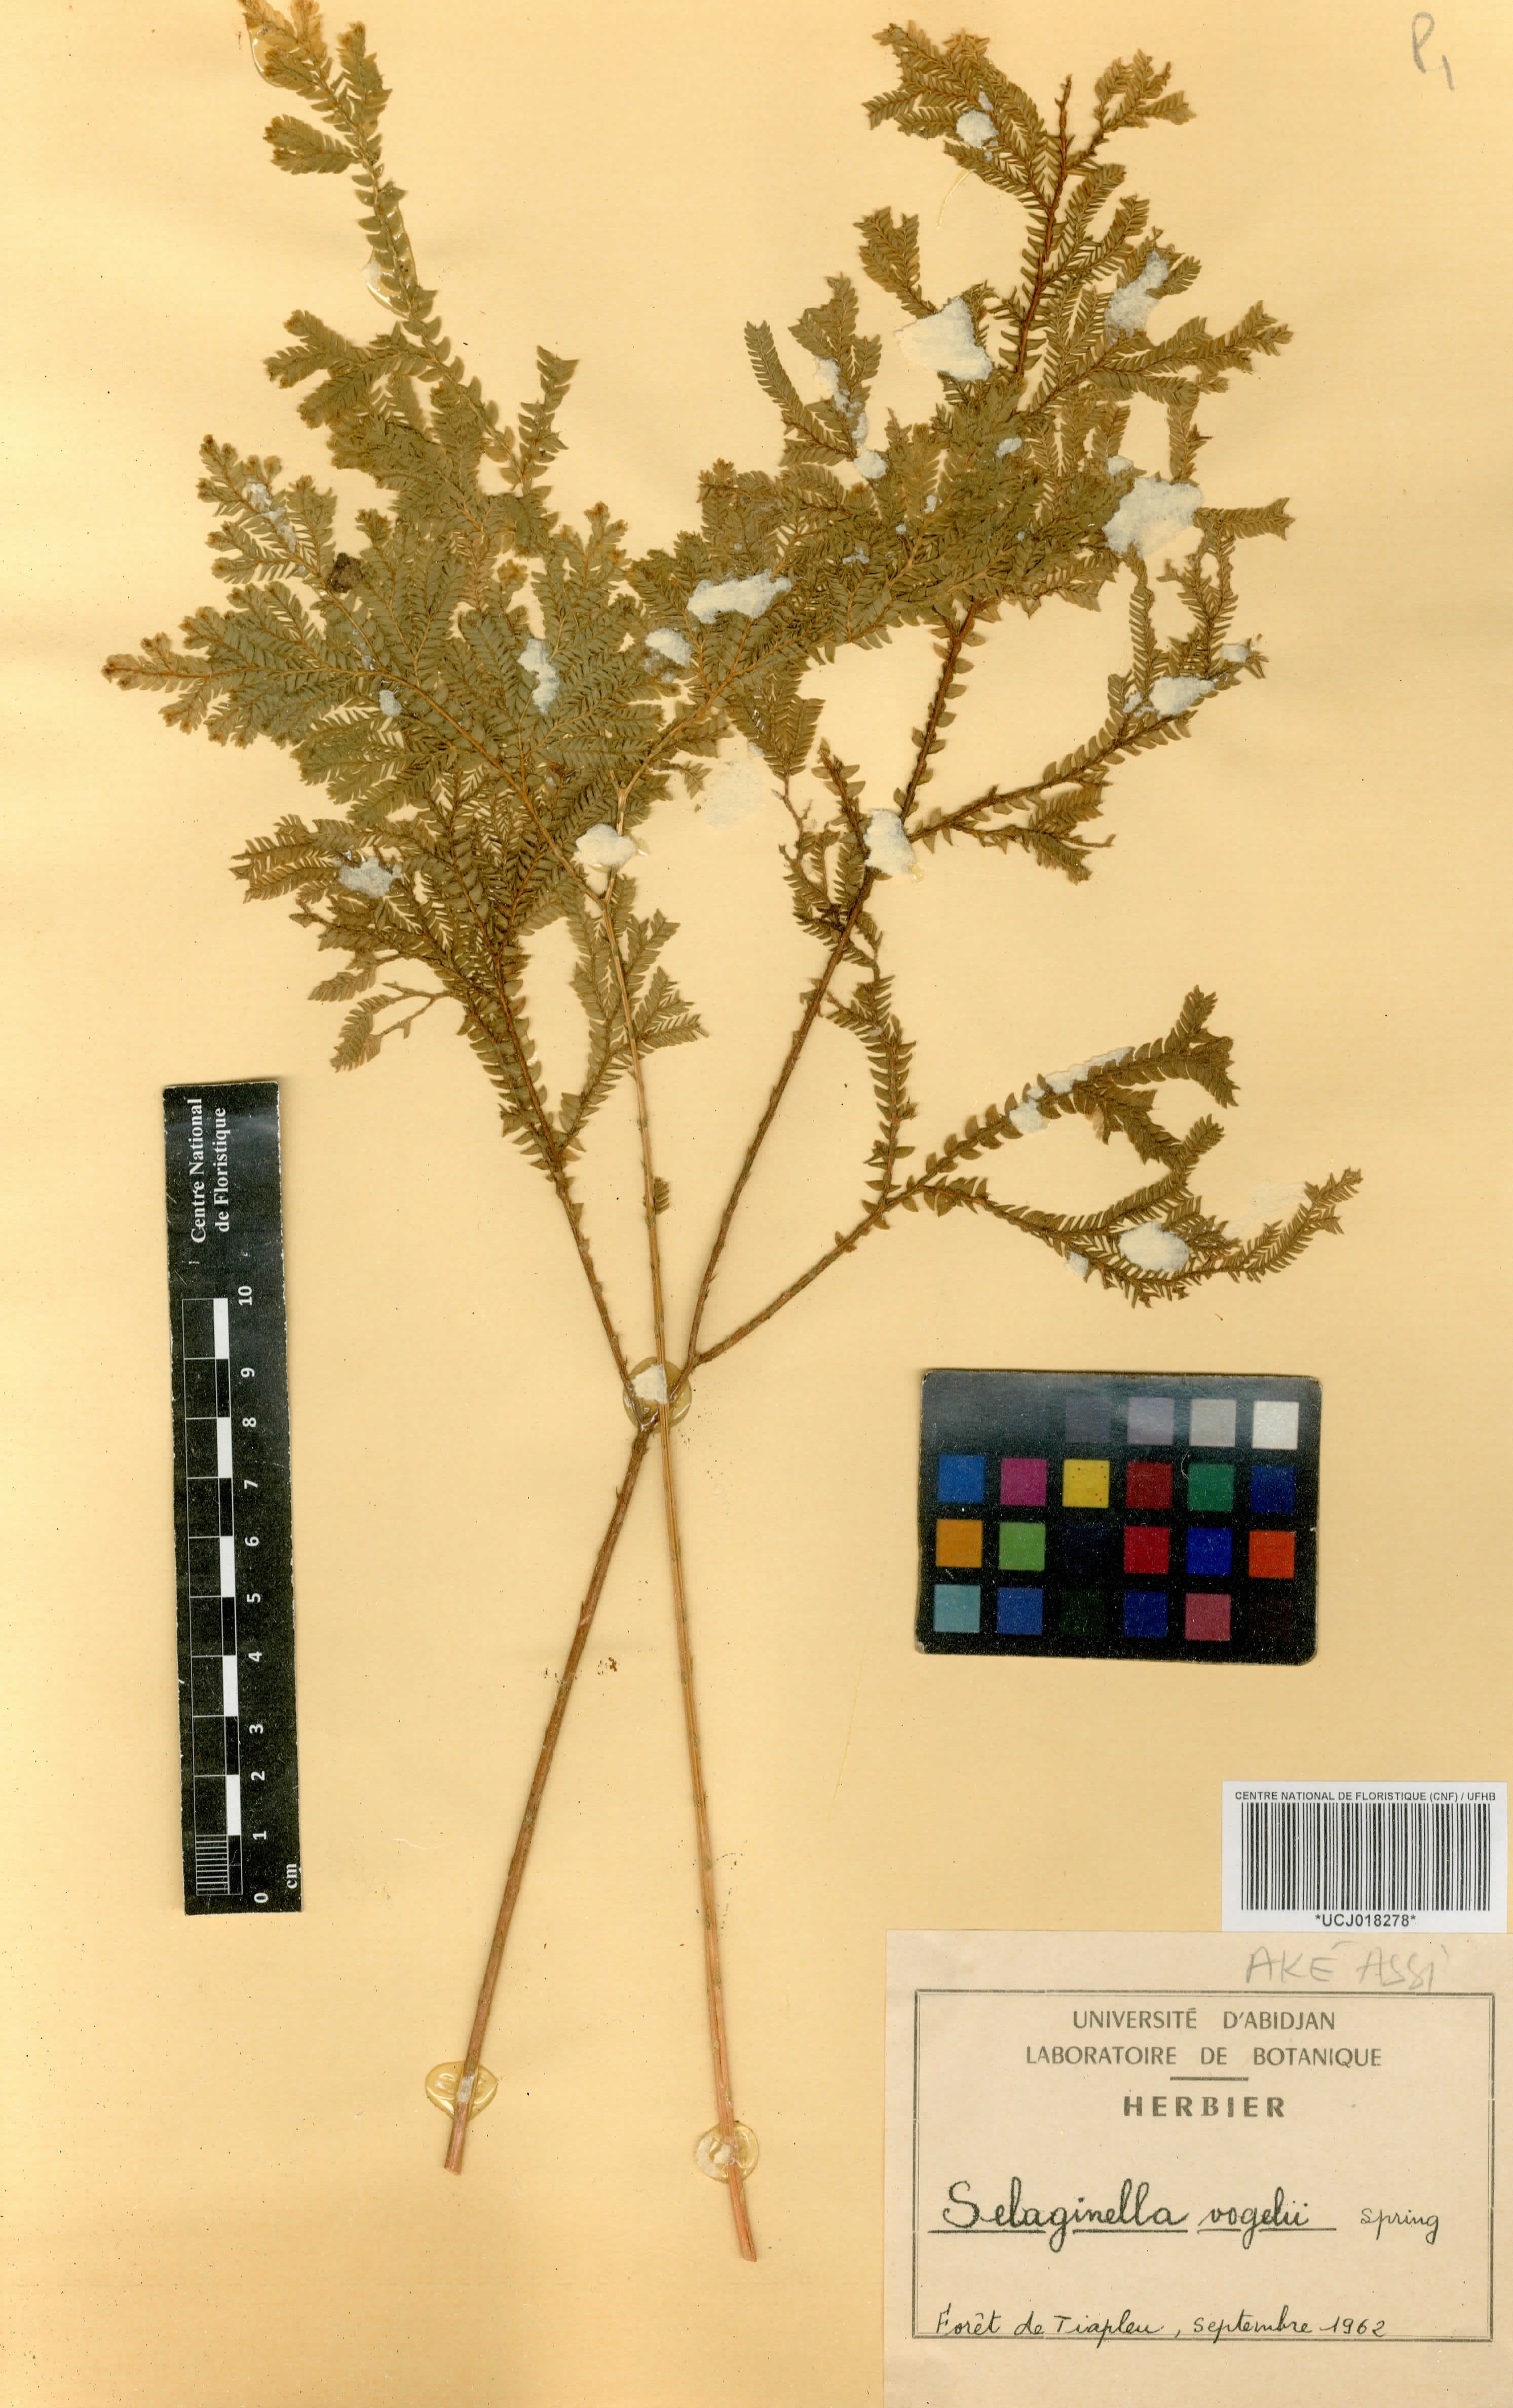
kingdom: Plantae
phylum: Tracheophyta
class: Lycopodiopsida
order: Selaginellales
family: Selaginellaceae
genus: Selaginella
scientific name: Selaginella vogelii
